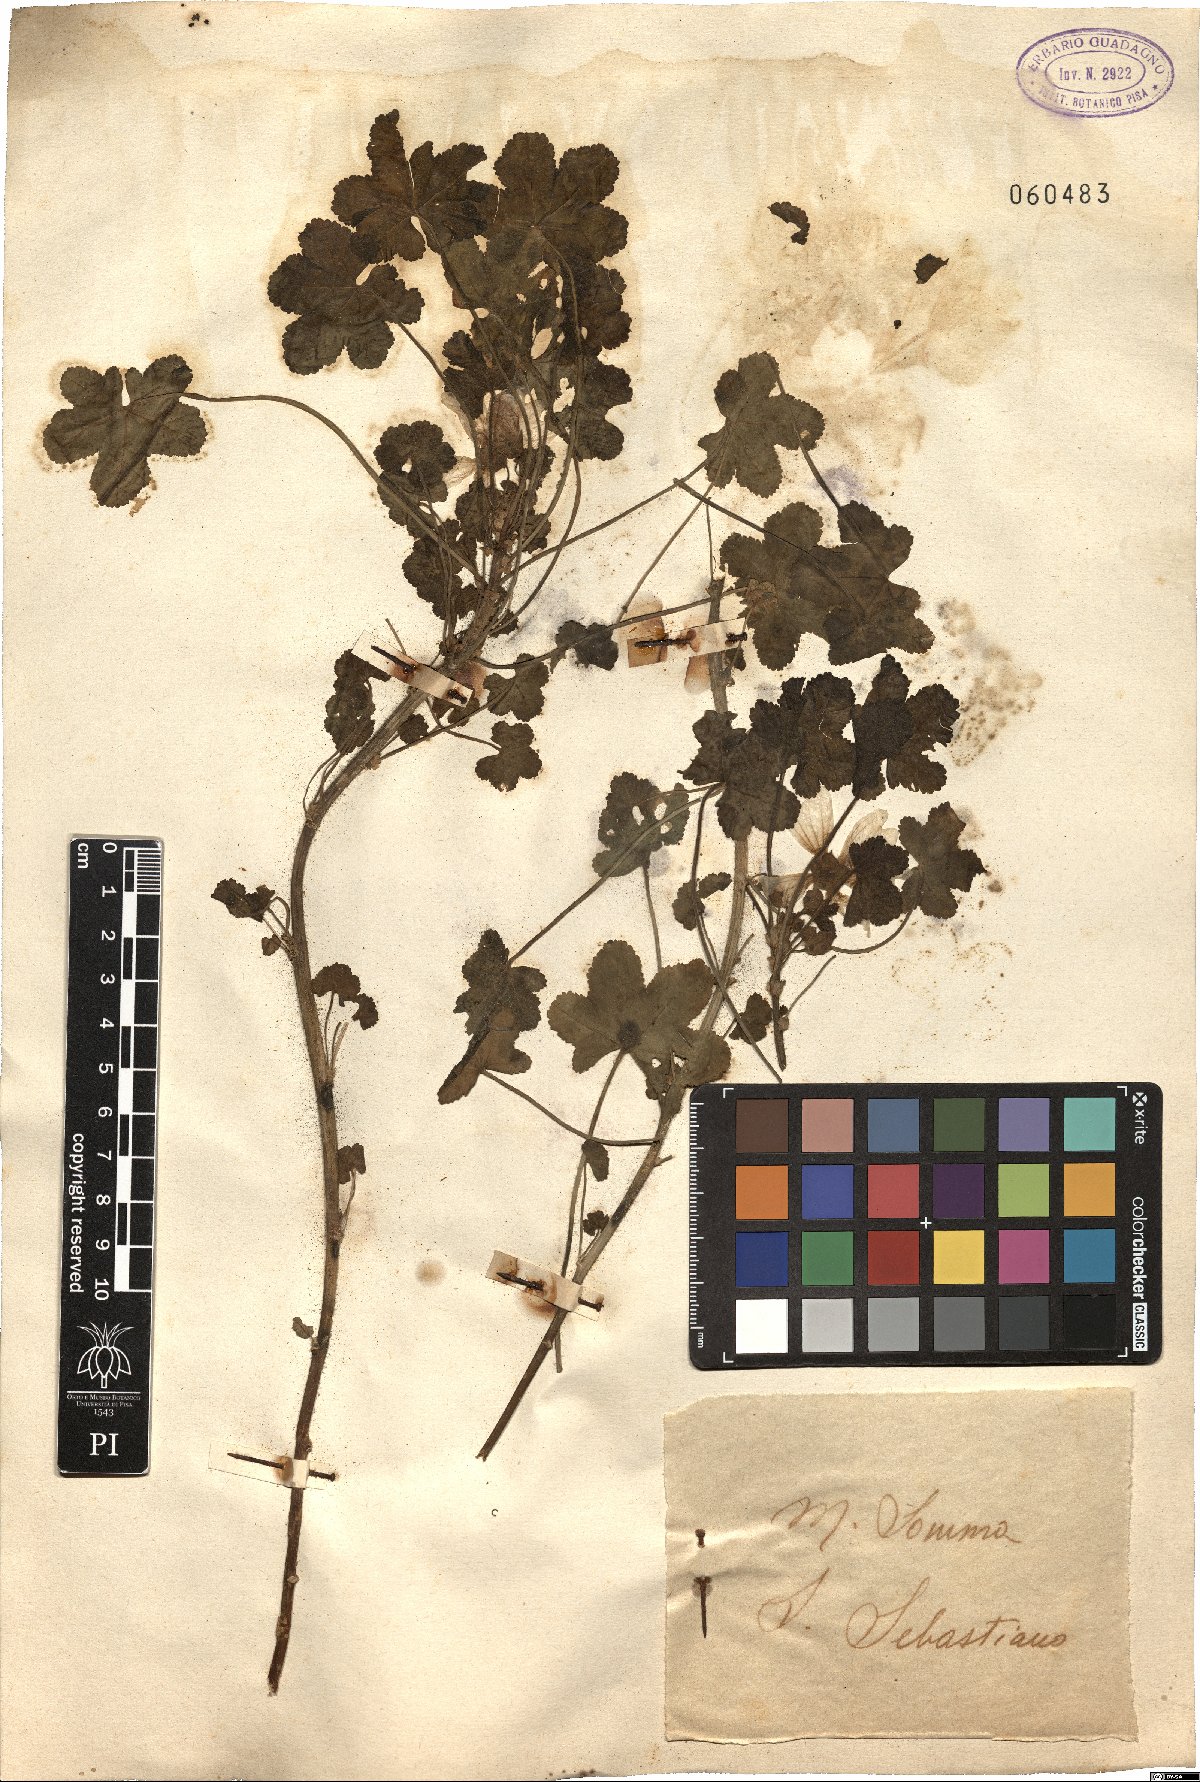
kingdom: Plantae
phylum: Tracheophyta
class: Magnoliopsida
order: Malvales
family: Malvaceae
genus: Malva
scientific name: Malva
